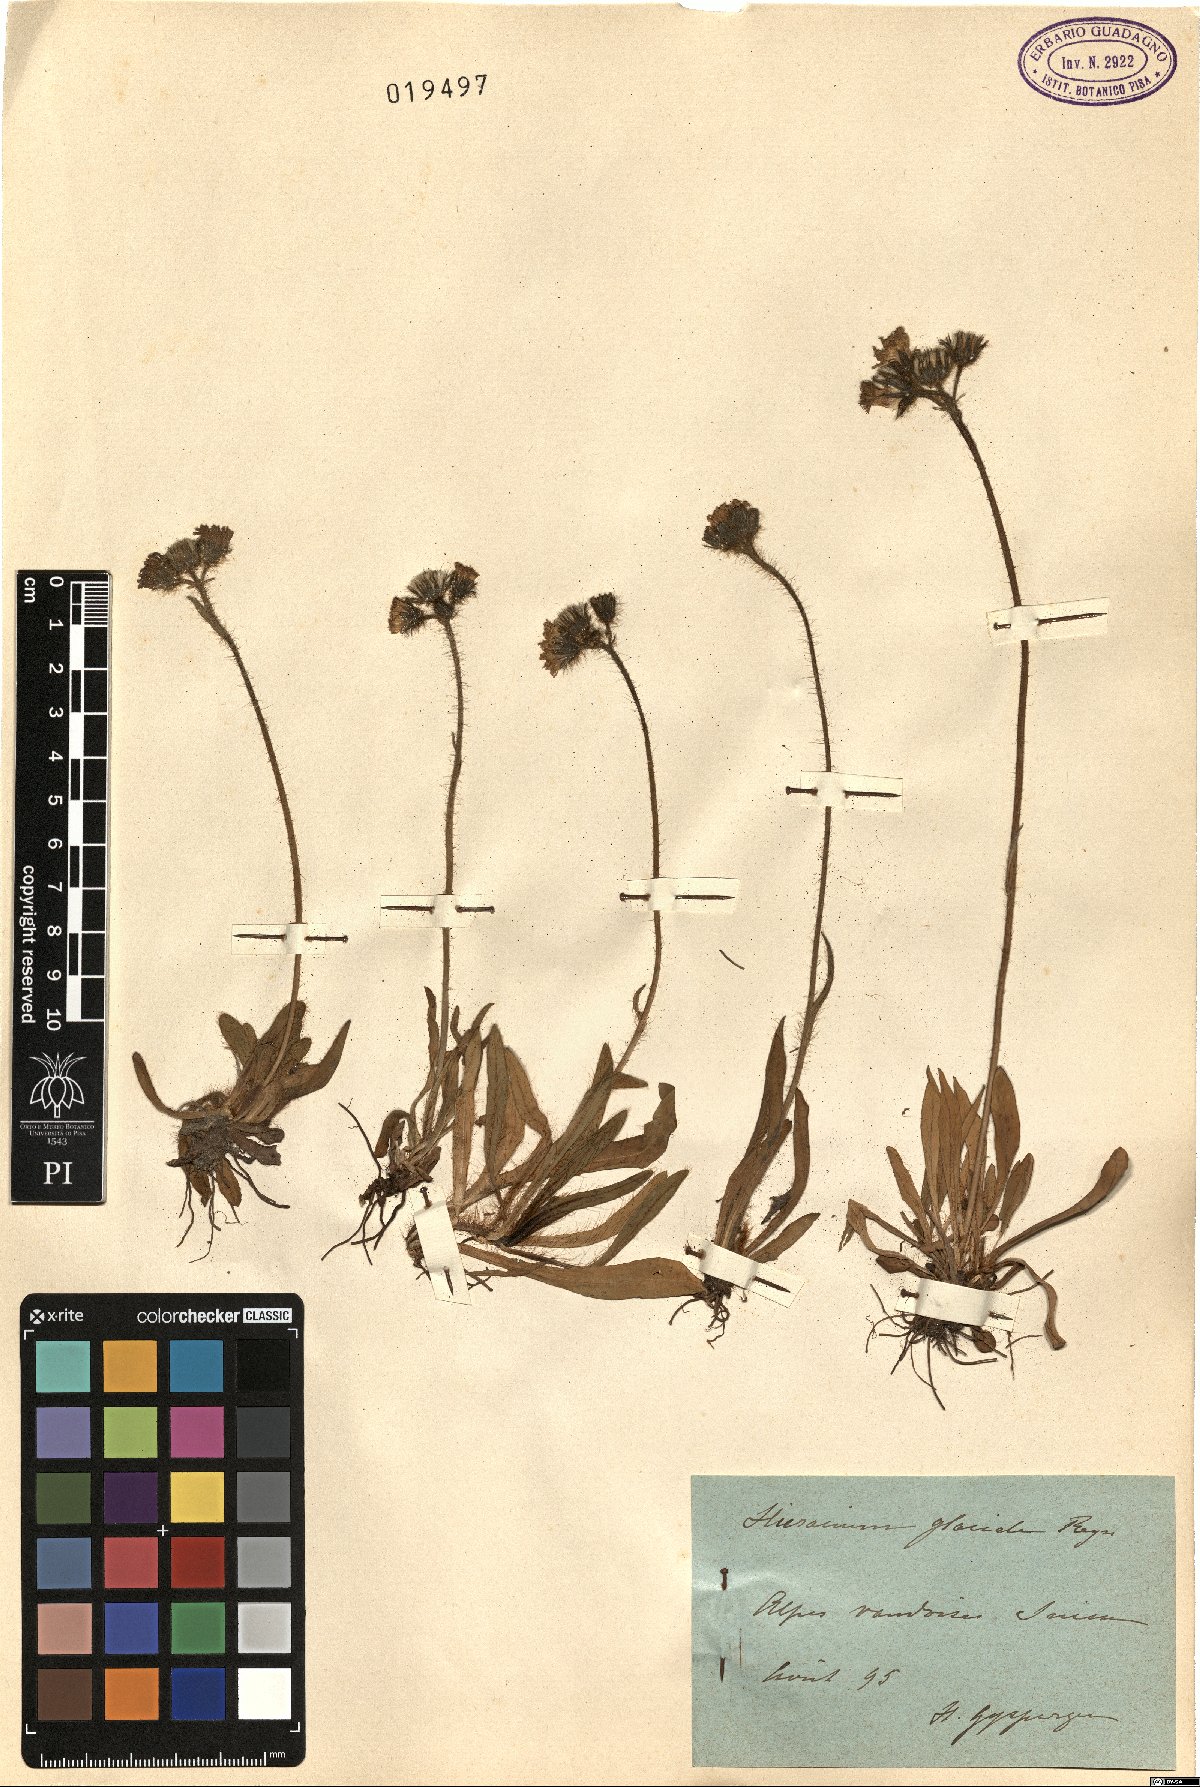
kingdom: Plantae
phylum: Tracheophyta
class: Magnoliopsida
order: Asterales
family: Asteraceae
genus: Pilosella
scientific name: Pilosella glacialis
